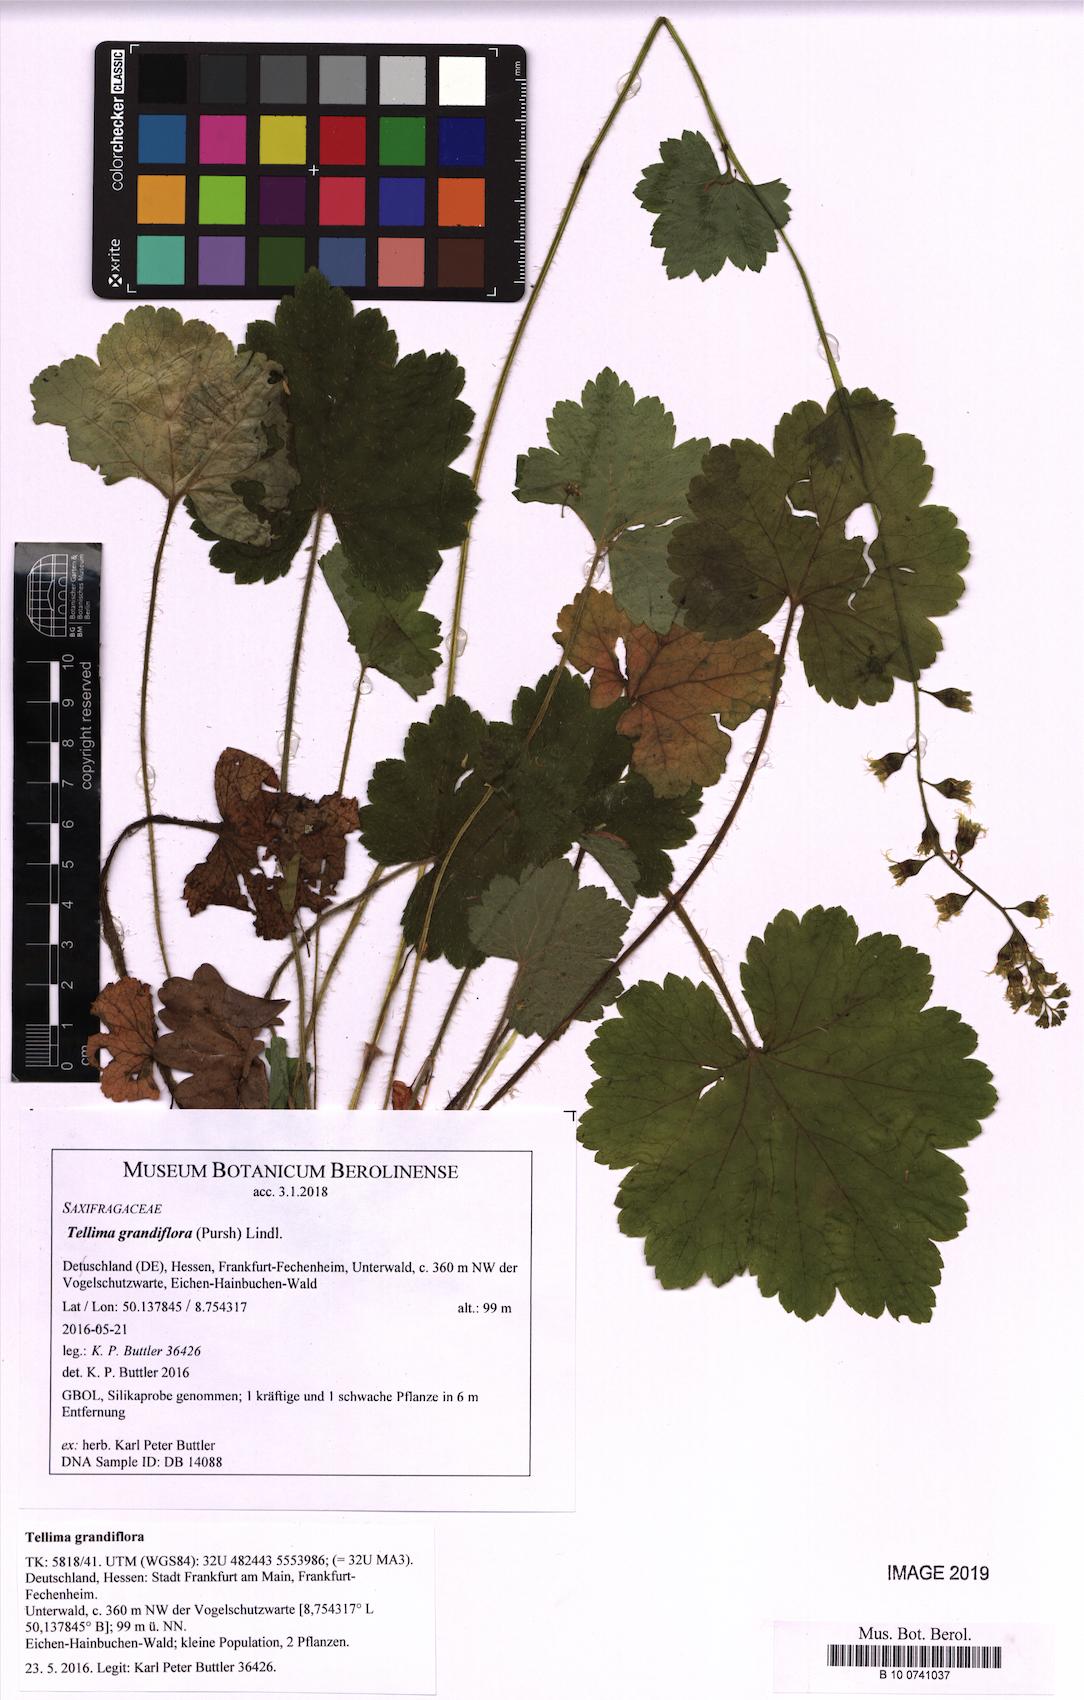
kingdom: Plantae
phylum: Tracheophyta
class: Magnoliopsida
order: Saxifragales
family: Saxifragaceae
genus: Tellima
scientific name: Tellima grandiflora
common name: Fringecups
